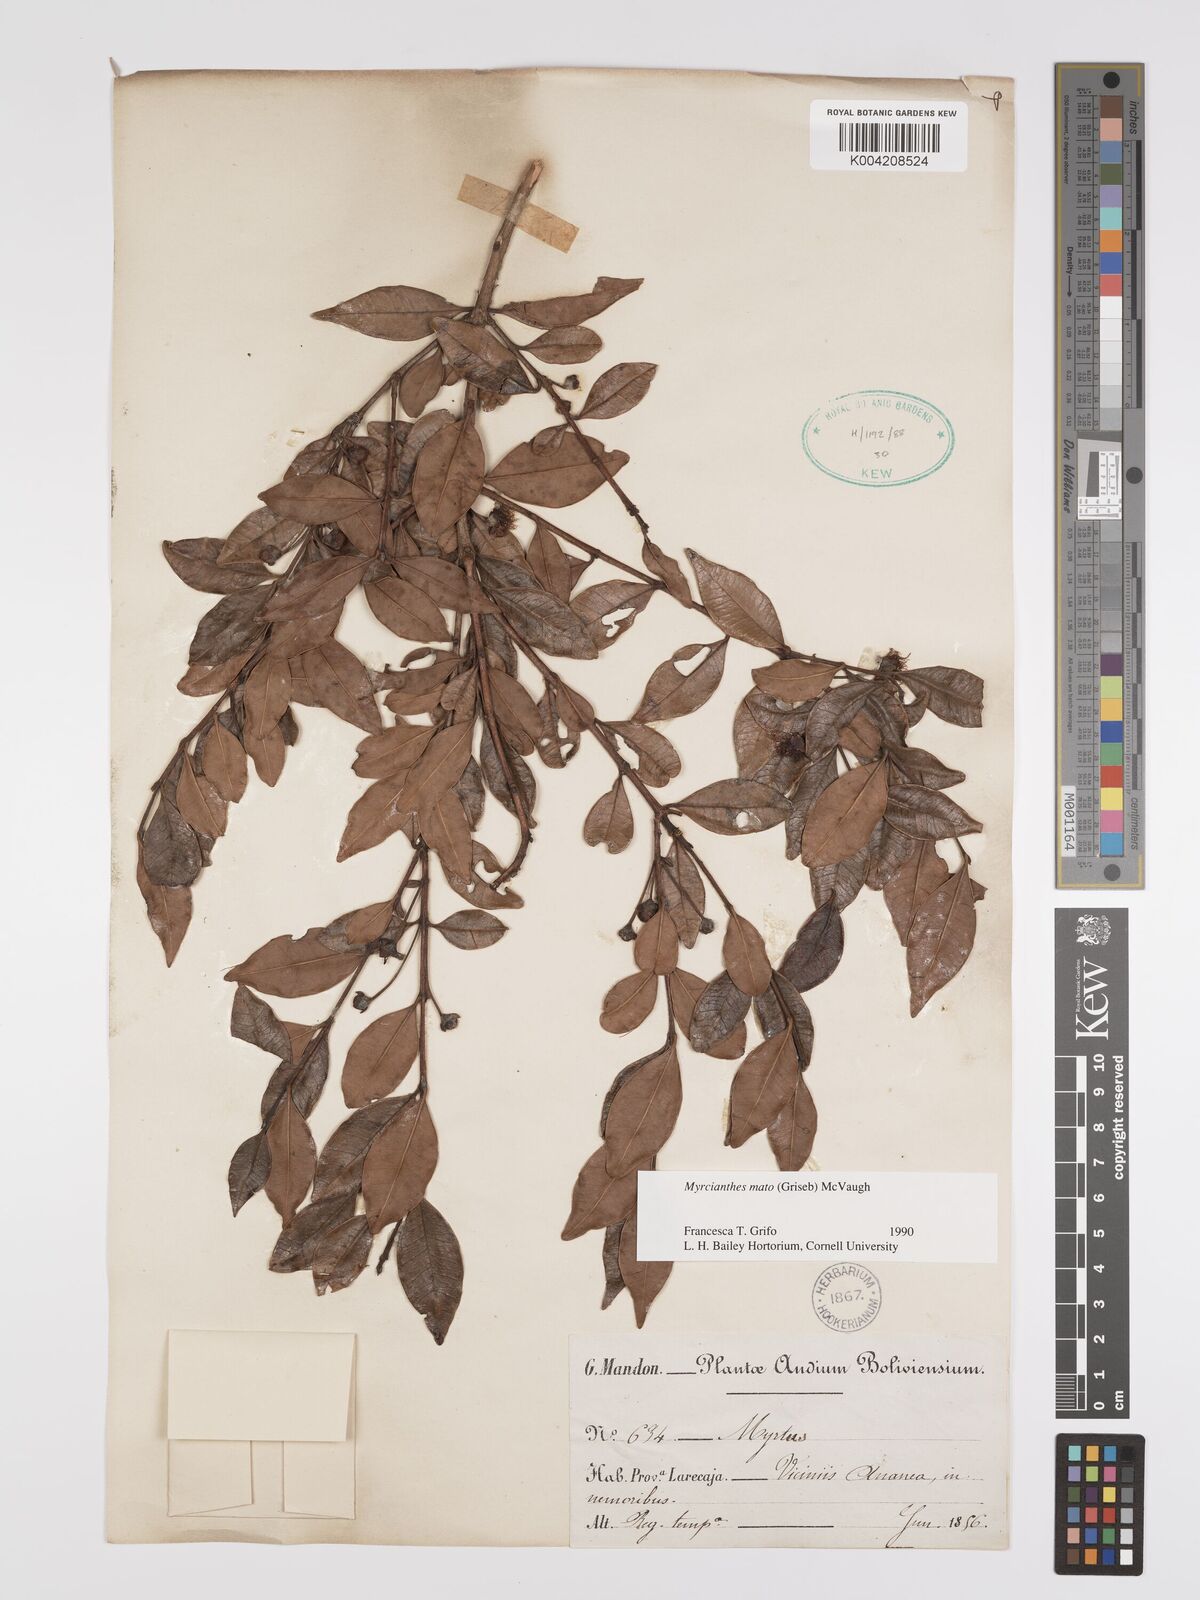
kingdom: Plantae
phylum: Tracheophyta
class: Magnoliopsida
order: Myrtales
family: Myrtaceae
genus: Myrcianthes
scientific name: Myrcianthes mato
